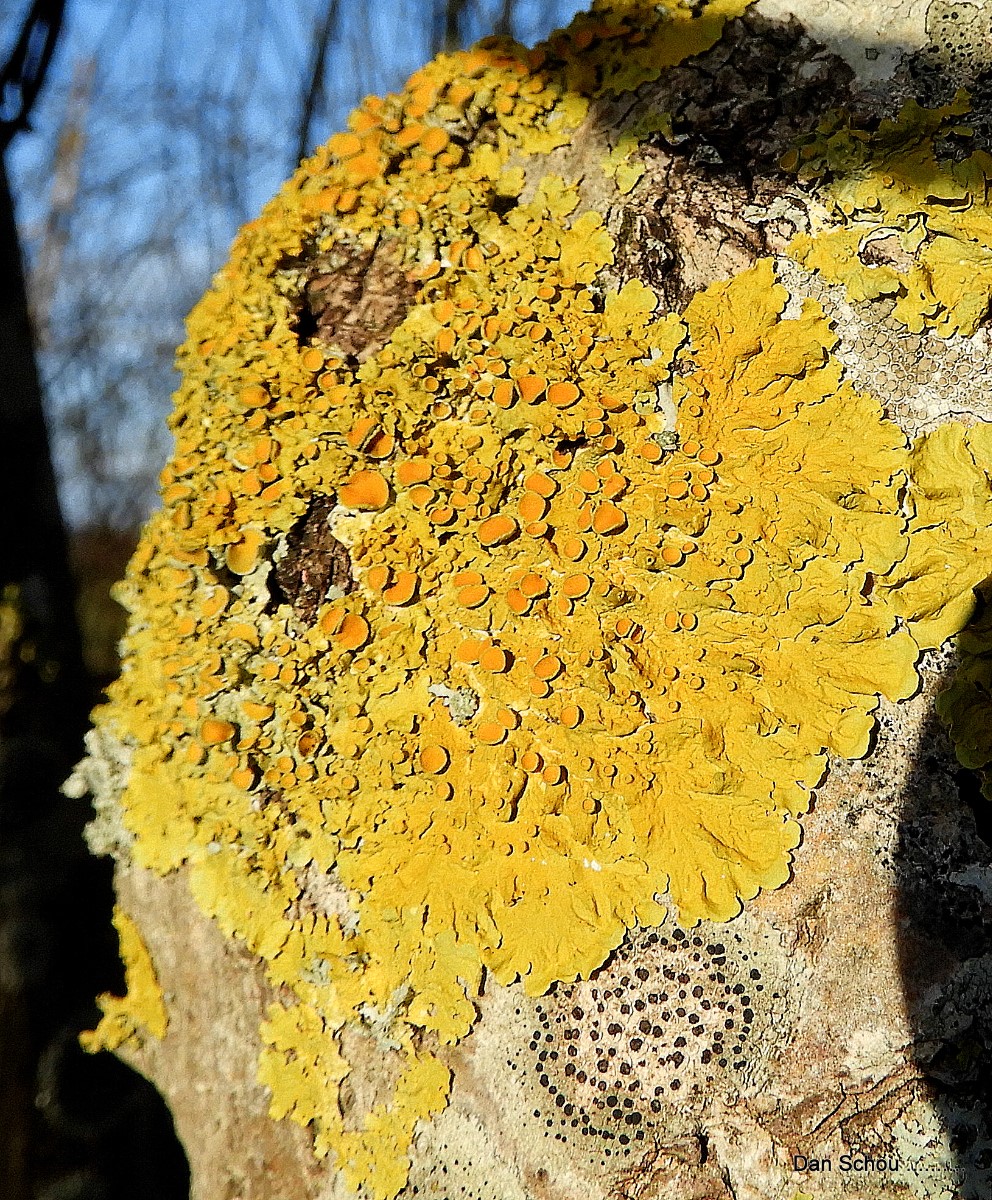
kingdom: Fungi
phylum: Ascomycota
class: Lecanoromycetes
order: Teloschistales
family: Teloschistaceae
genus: Xanthoria
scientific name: Xanthoria parietina
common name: almindelig væggelav
